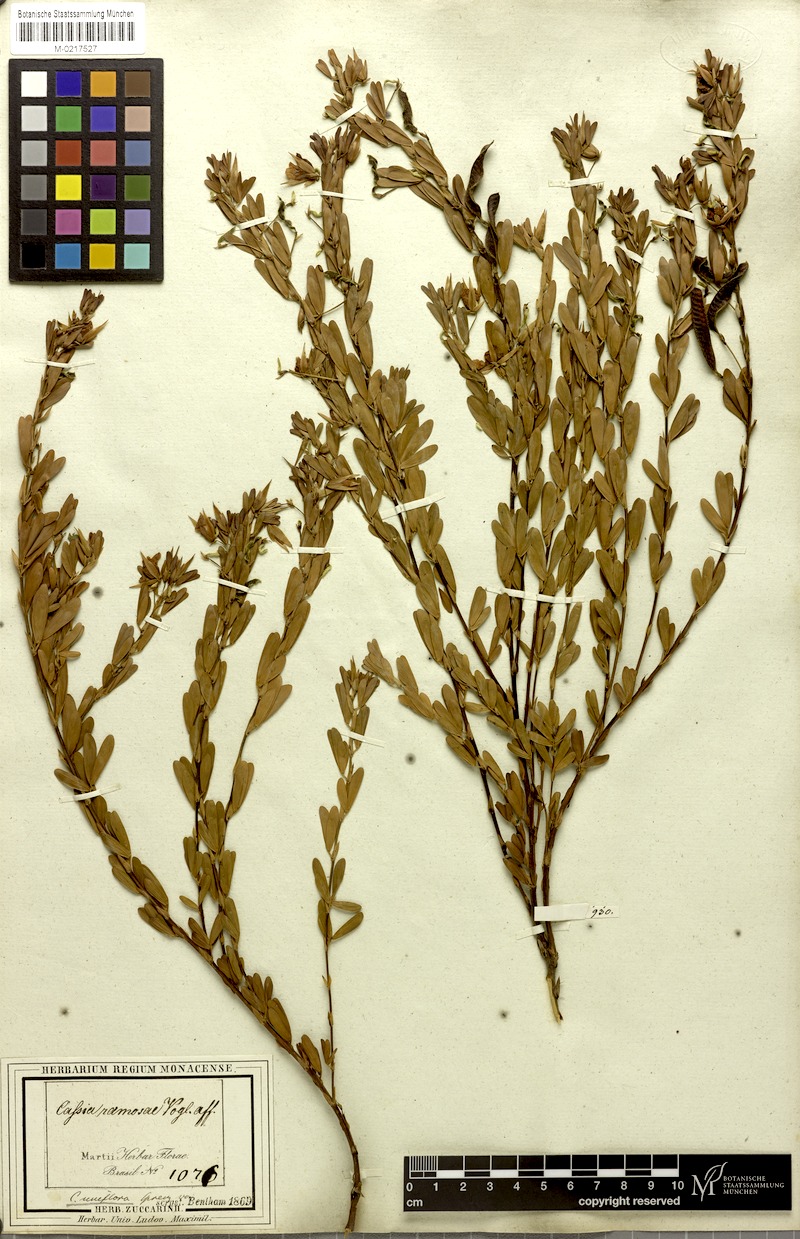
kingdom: Plantae
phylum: Tracheophyta
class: Magnoliopsida
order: Fabales
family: Fabaceae
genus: Chamaecrista
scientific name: Chamaecrista langsdorffii
